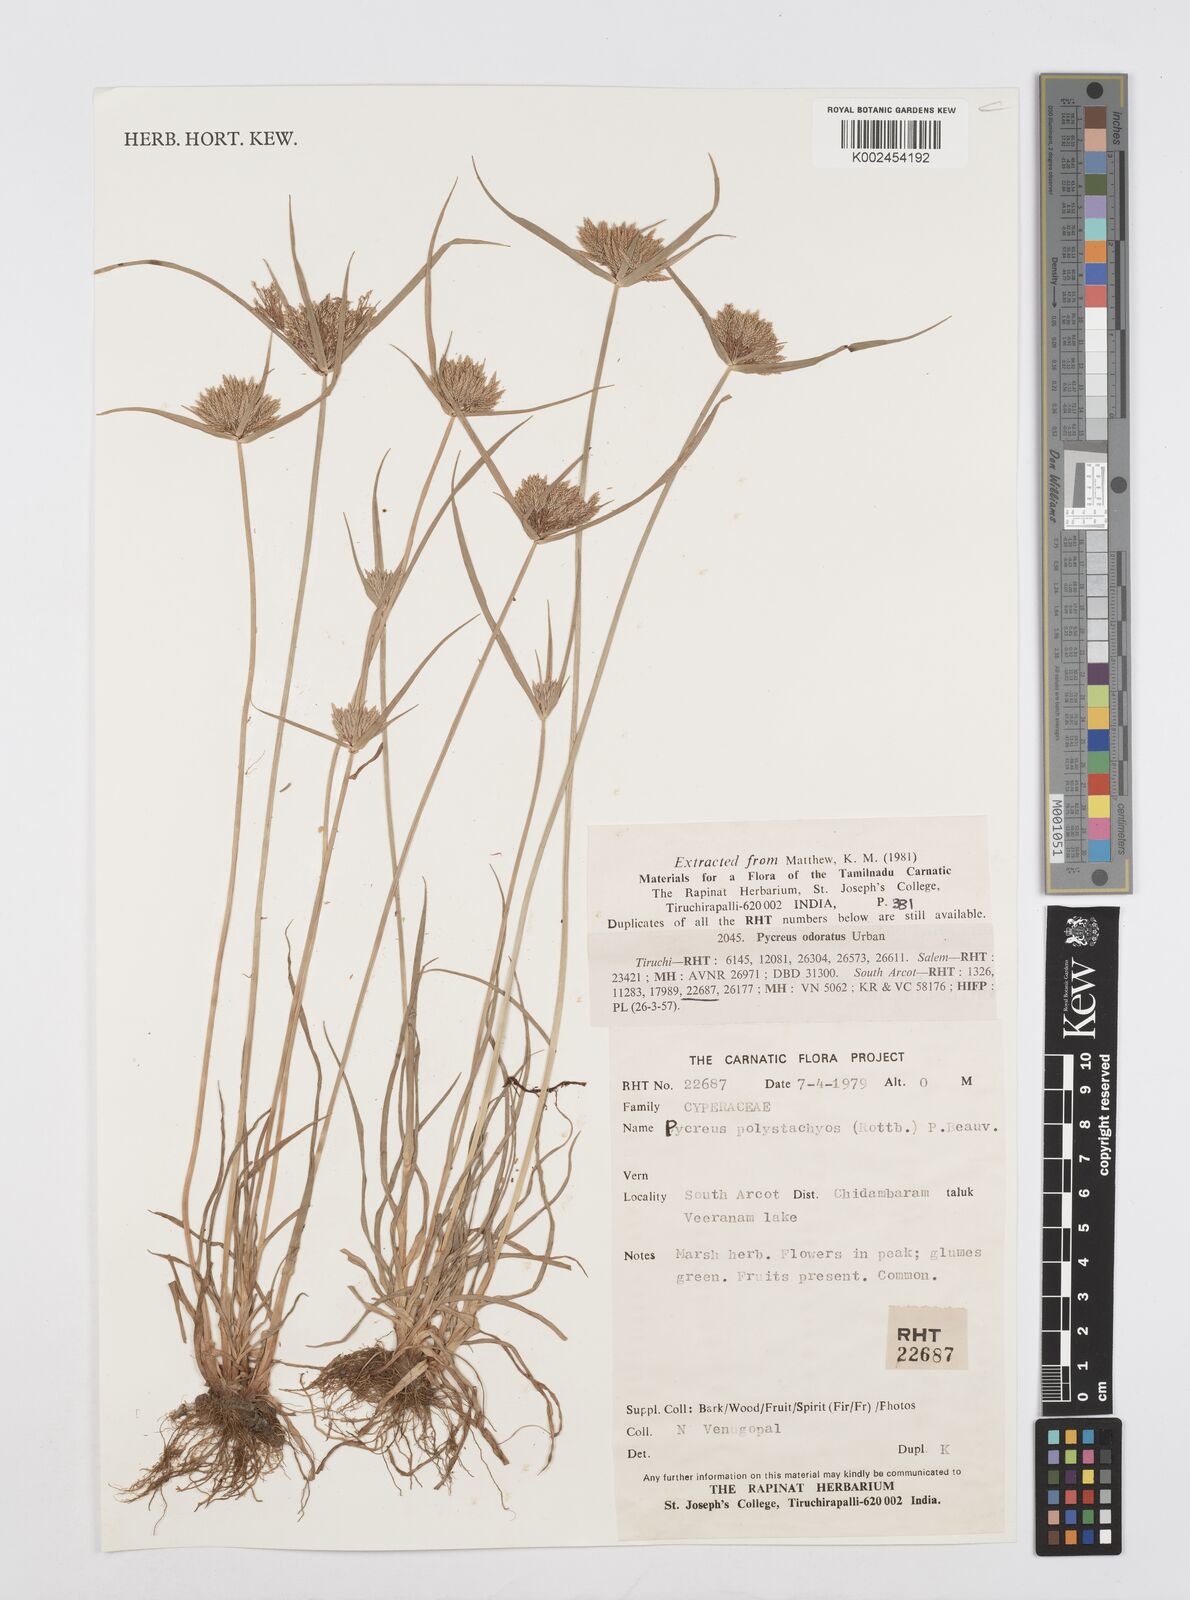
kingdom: Plantae
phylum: Tracheophyta
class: Liliopsida
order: Poales
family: Cyperaceae
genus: Cyperus
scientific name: Cyperus polystachyos
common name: Bunchy flat sedge
